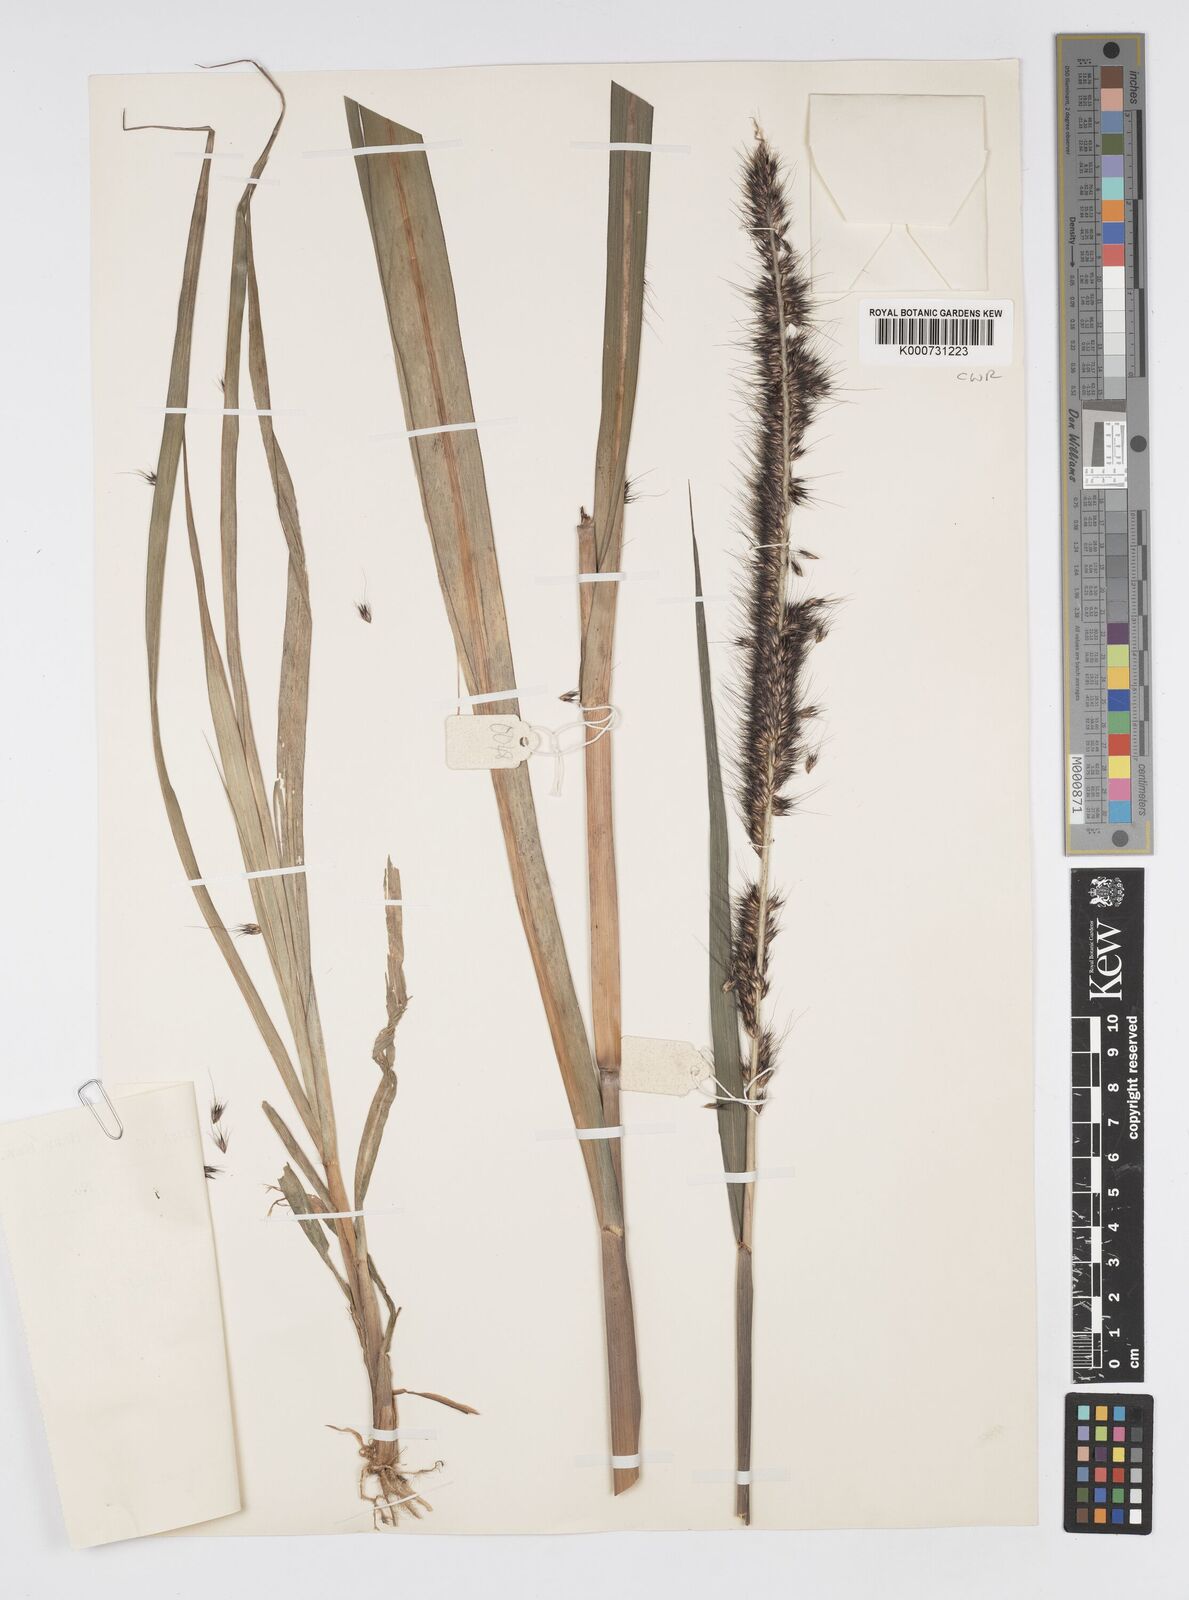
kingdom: Plantae
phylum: Tracheophyta
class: Liliopsida
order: Poales
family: Poaceae
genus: Cenchrus
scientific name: Cenchrus purpureus
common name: Elephant grass
